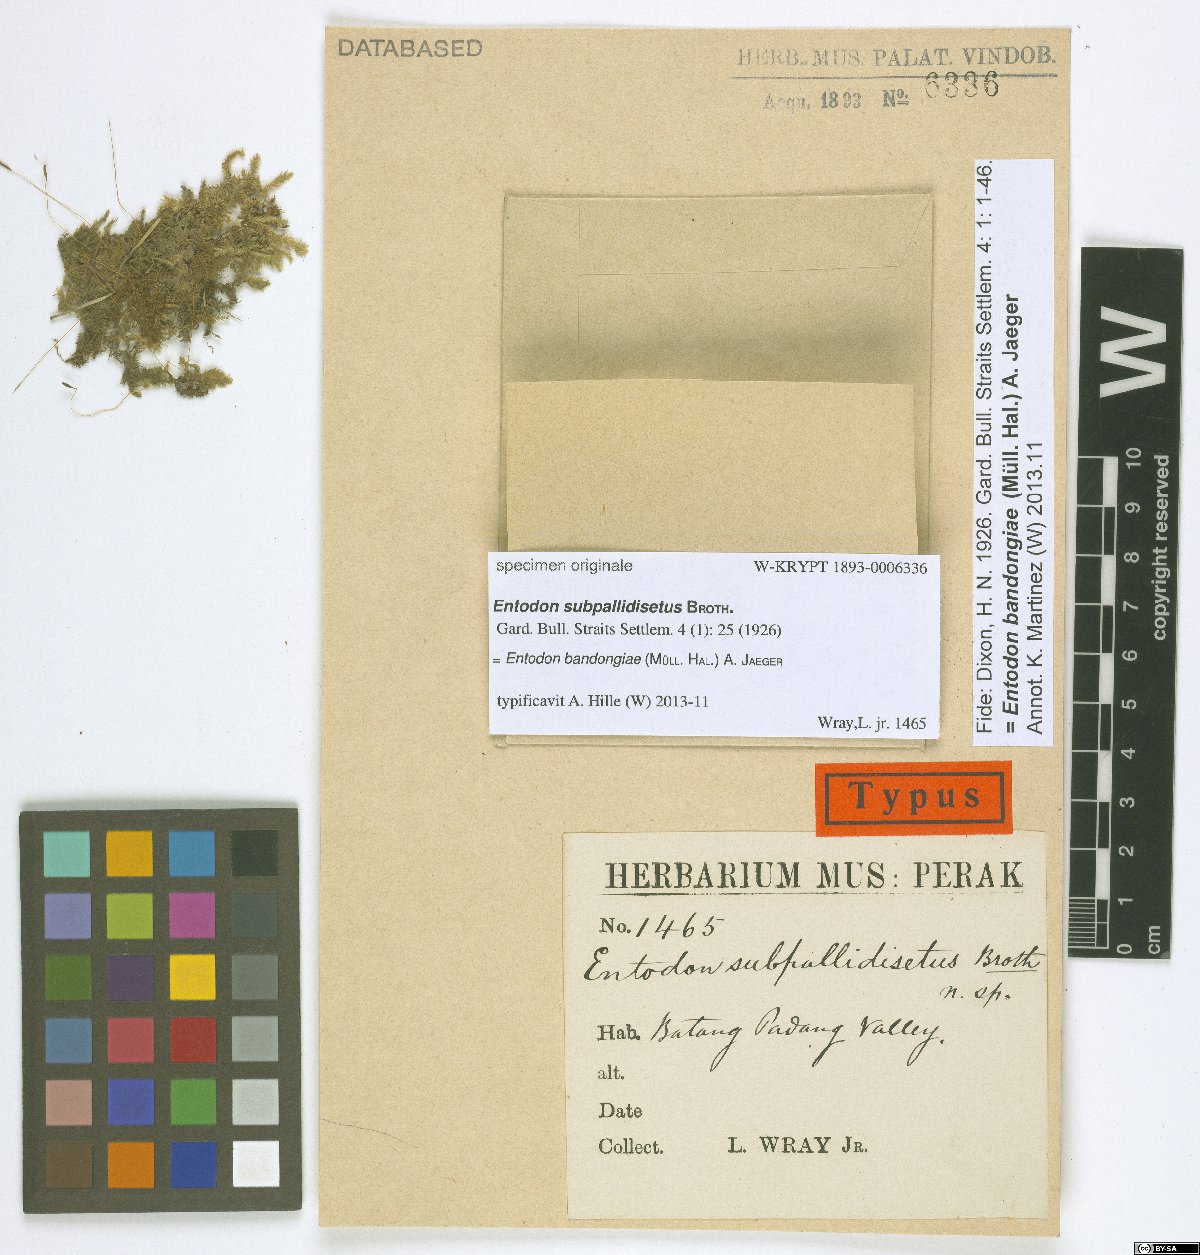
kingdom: Plantae
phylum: Bryophyta
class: Bryopsida
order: Hypnales
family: Entodontaceae
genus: Entodon
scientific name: Entodon
